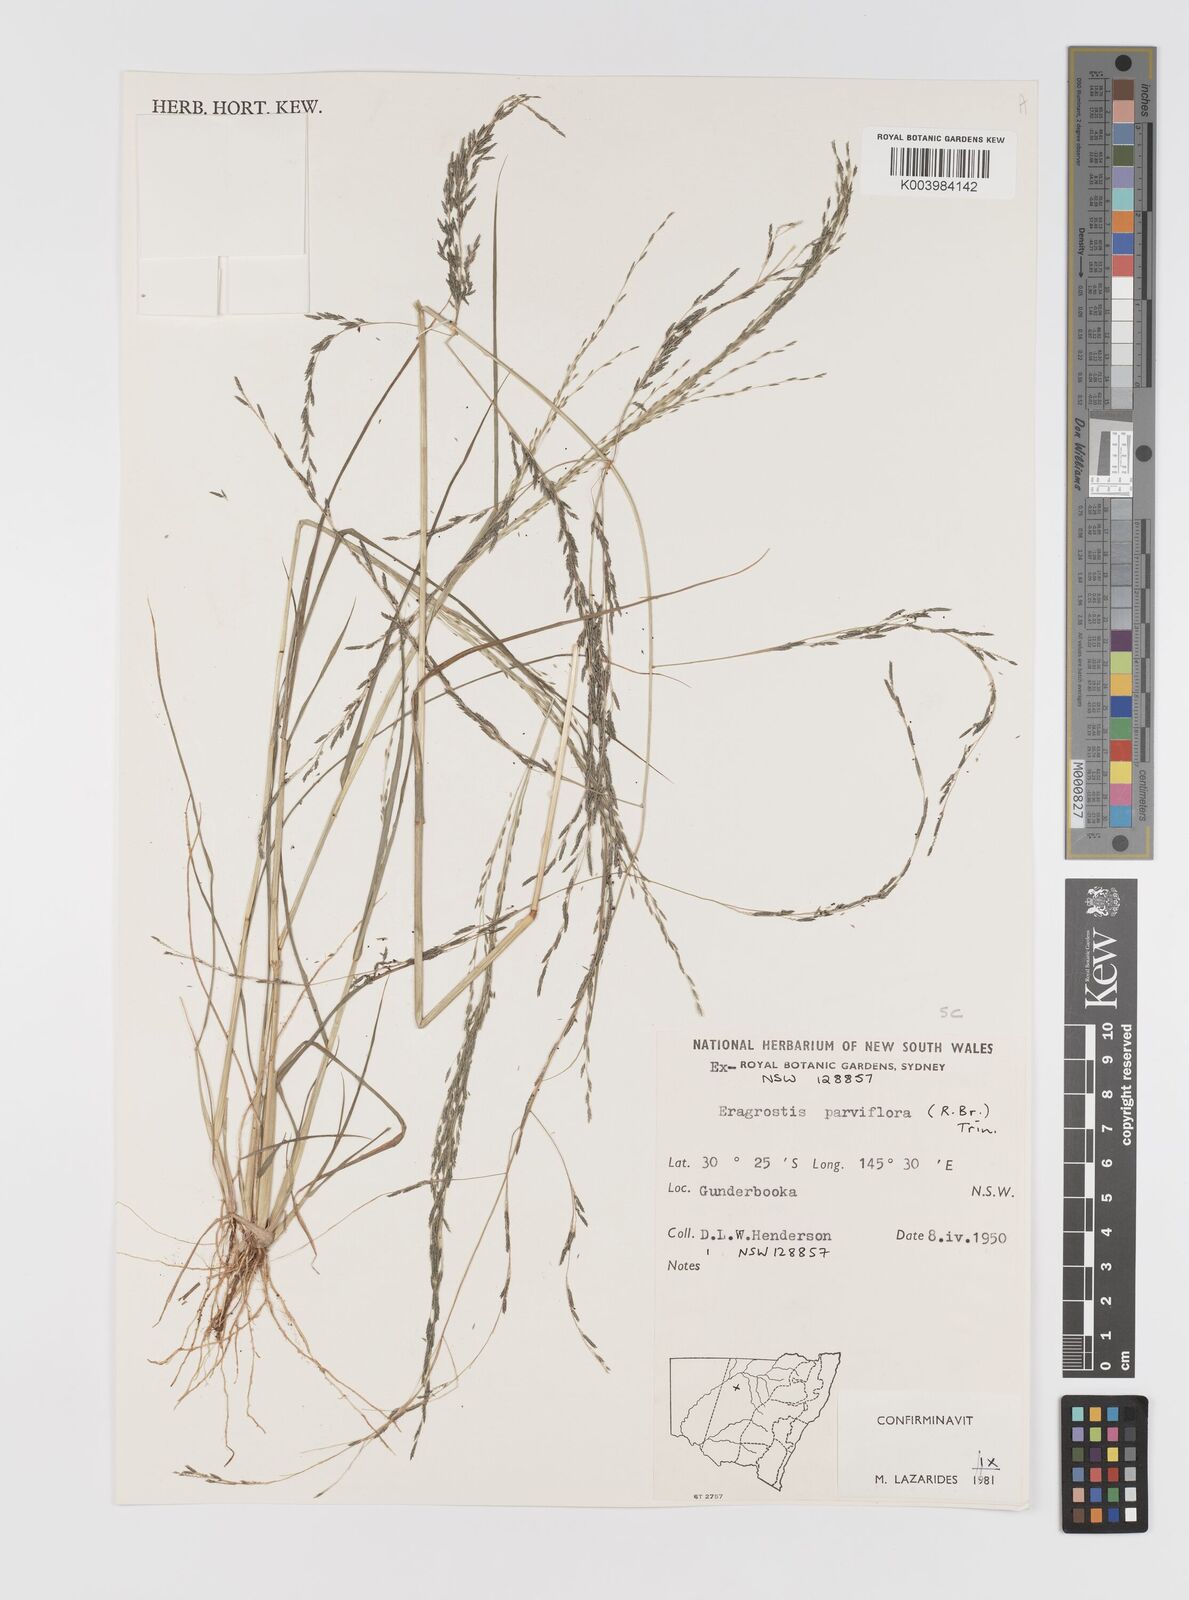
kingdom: Plantae
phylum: Tracheophyta
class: Liliopsida
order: Poales
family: Poaceae
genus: Eragrostis
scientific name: Eragrostis parviflora
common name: Weeping love-grass
